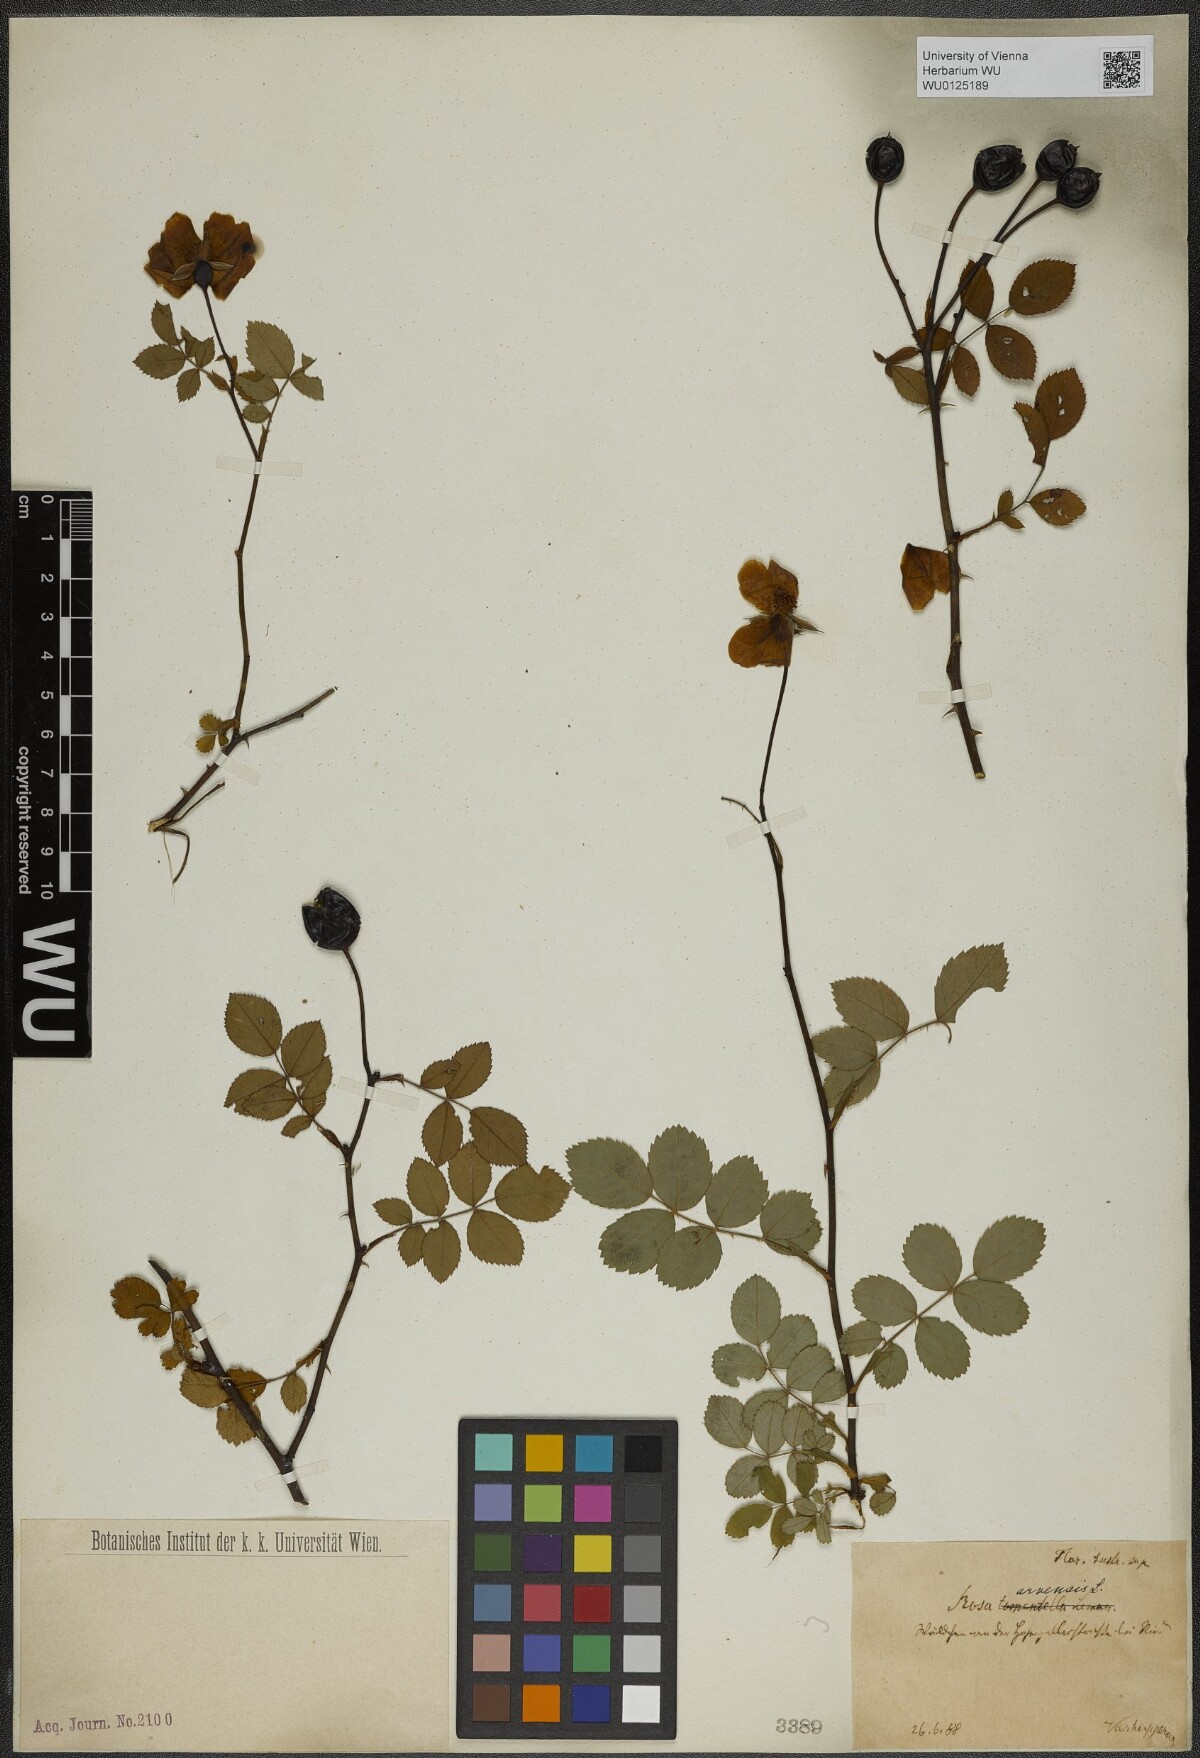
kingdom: Plantae
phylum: Tracheophyta
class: Magnoliopsida
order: Rosales
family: Rosaceae
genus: Rosa
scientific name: Rosa arvensis
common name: Field rose
